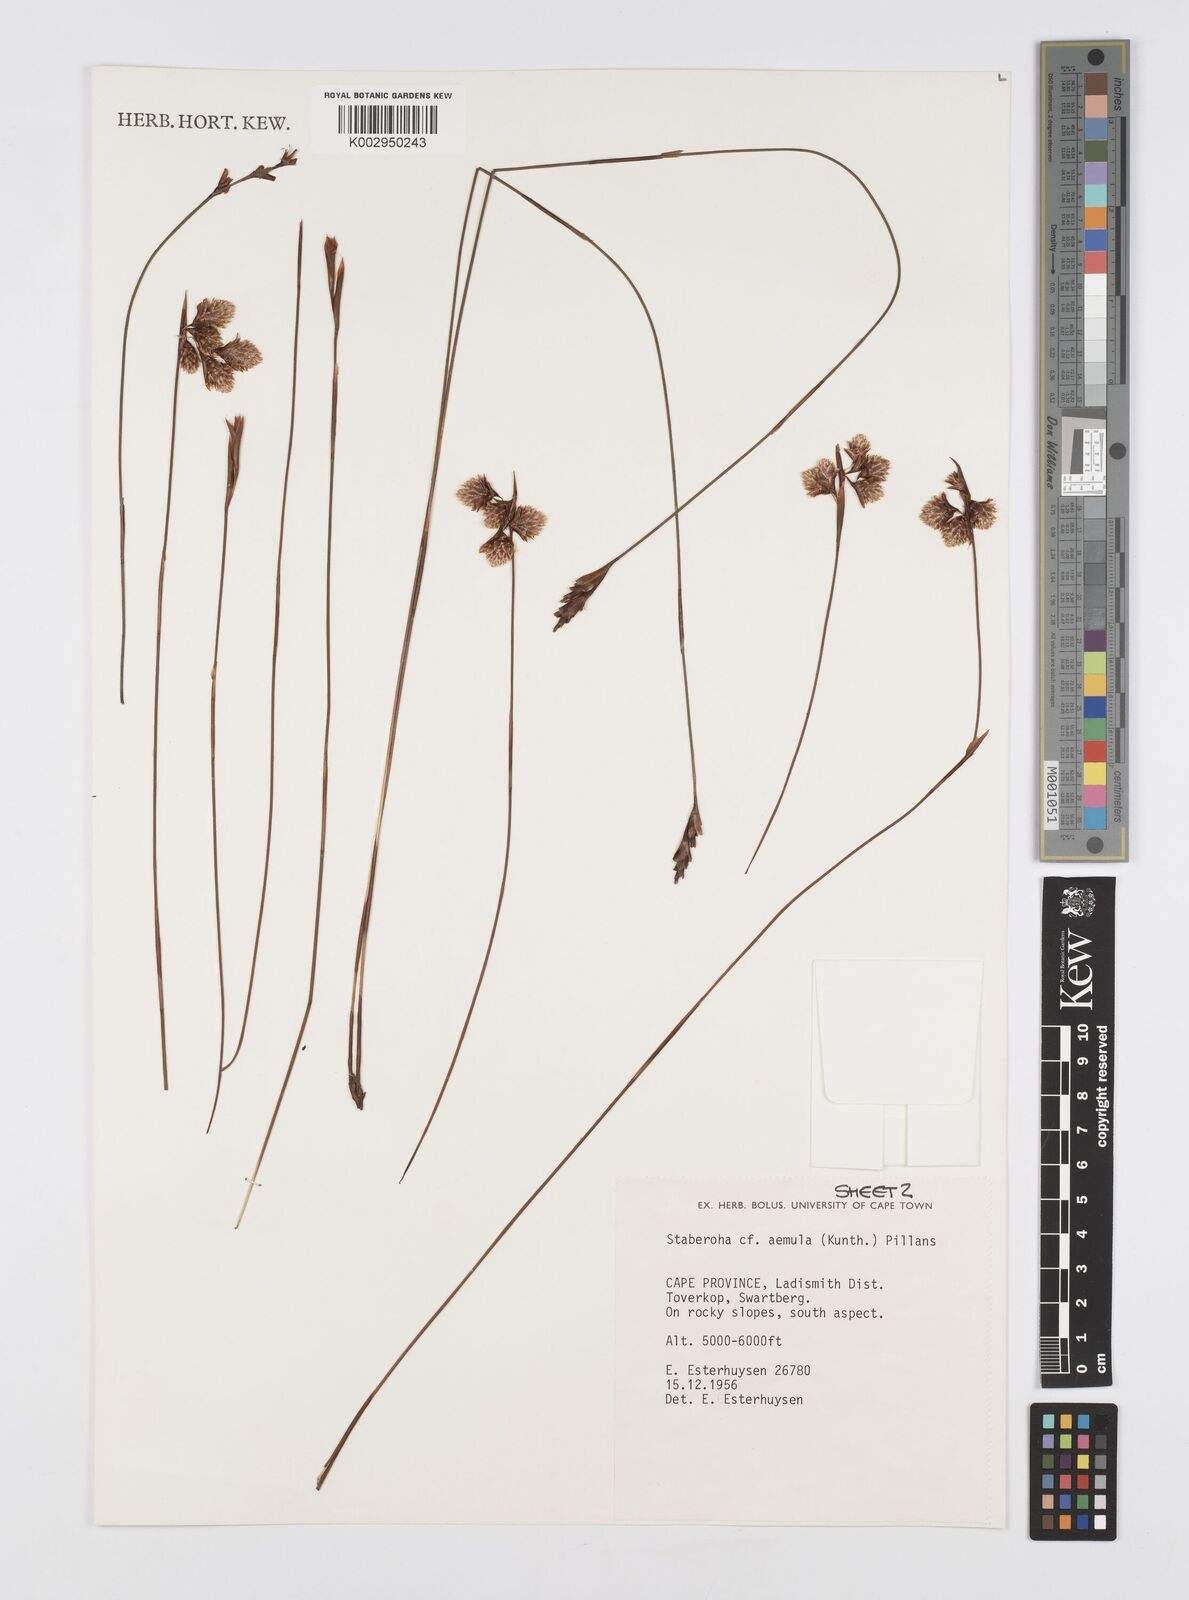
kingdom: Plantae
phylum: Tracheophyta
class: Liliopsida
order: Poales
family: Restionaceae
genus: Staberoha
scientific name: Staberoha aemula
